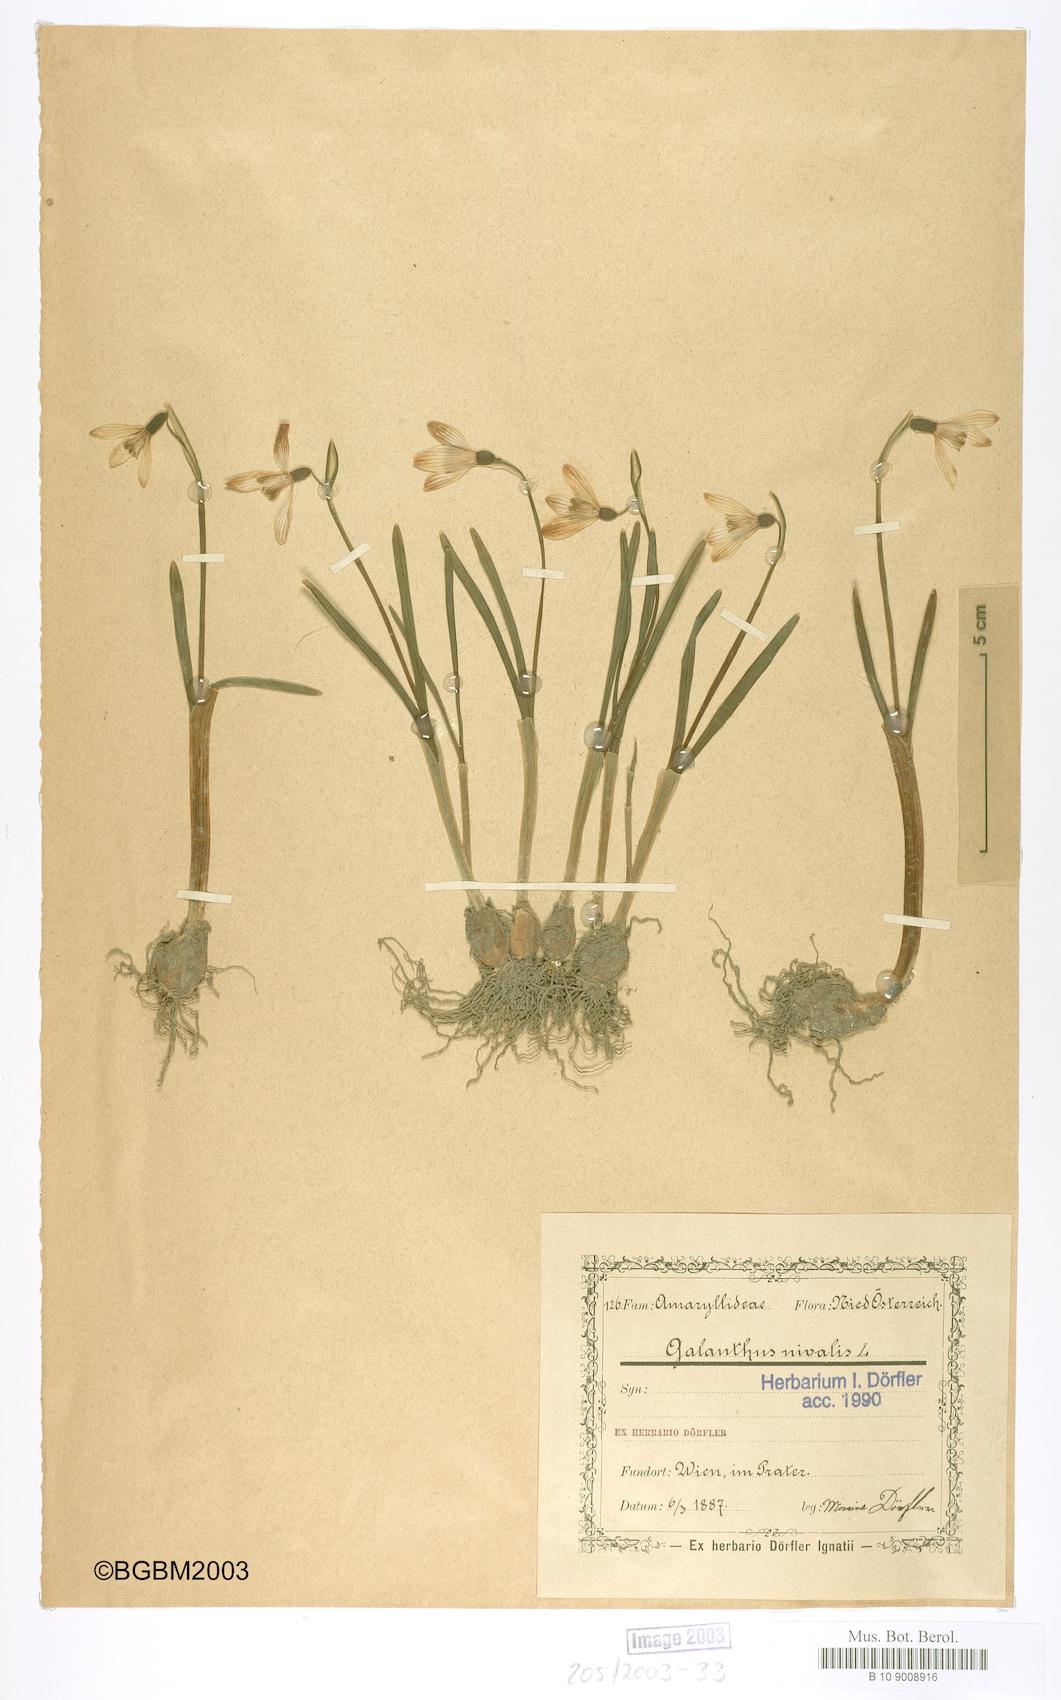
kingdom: Plantae
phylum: Tracheophyta
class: Liliopsida
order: Asparagales
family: Amaryllidaceae
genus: Galanthus
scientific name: Galanthus nivalis
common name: Snowdrop
